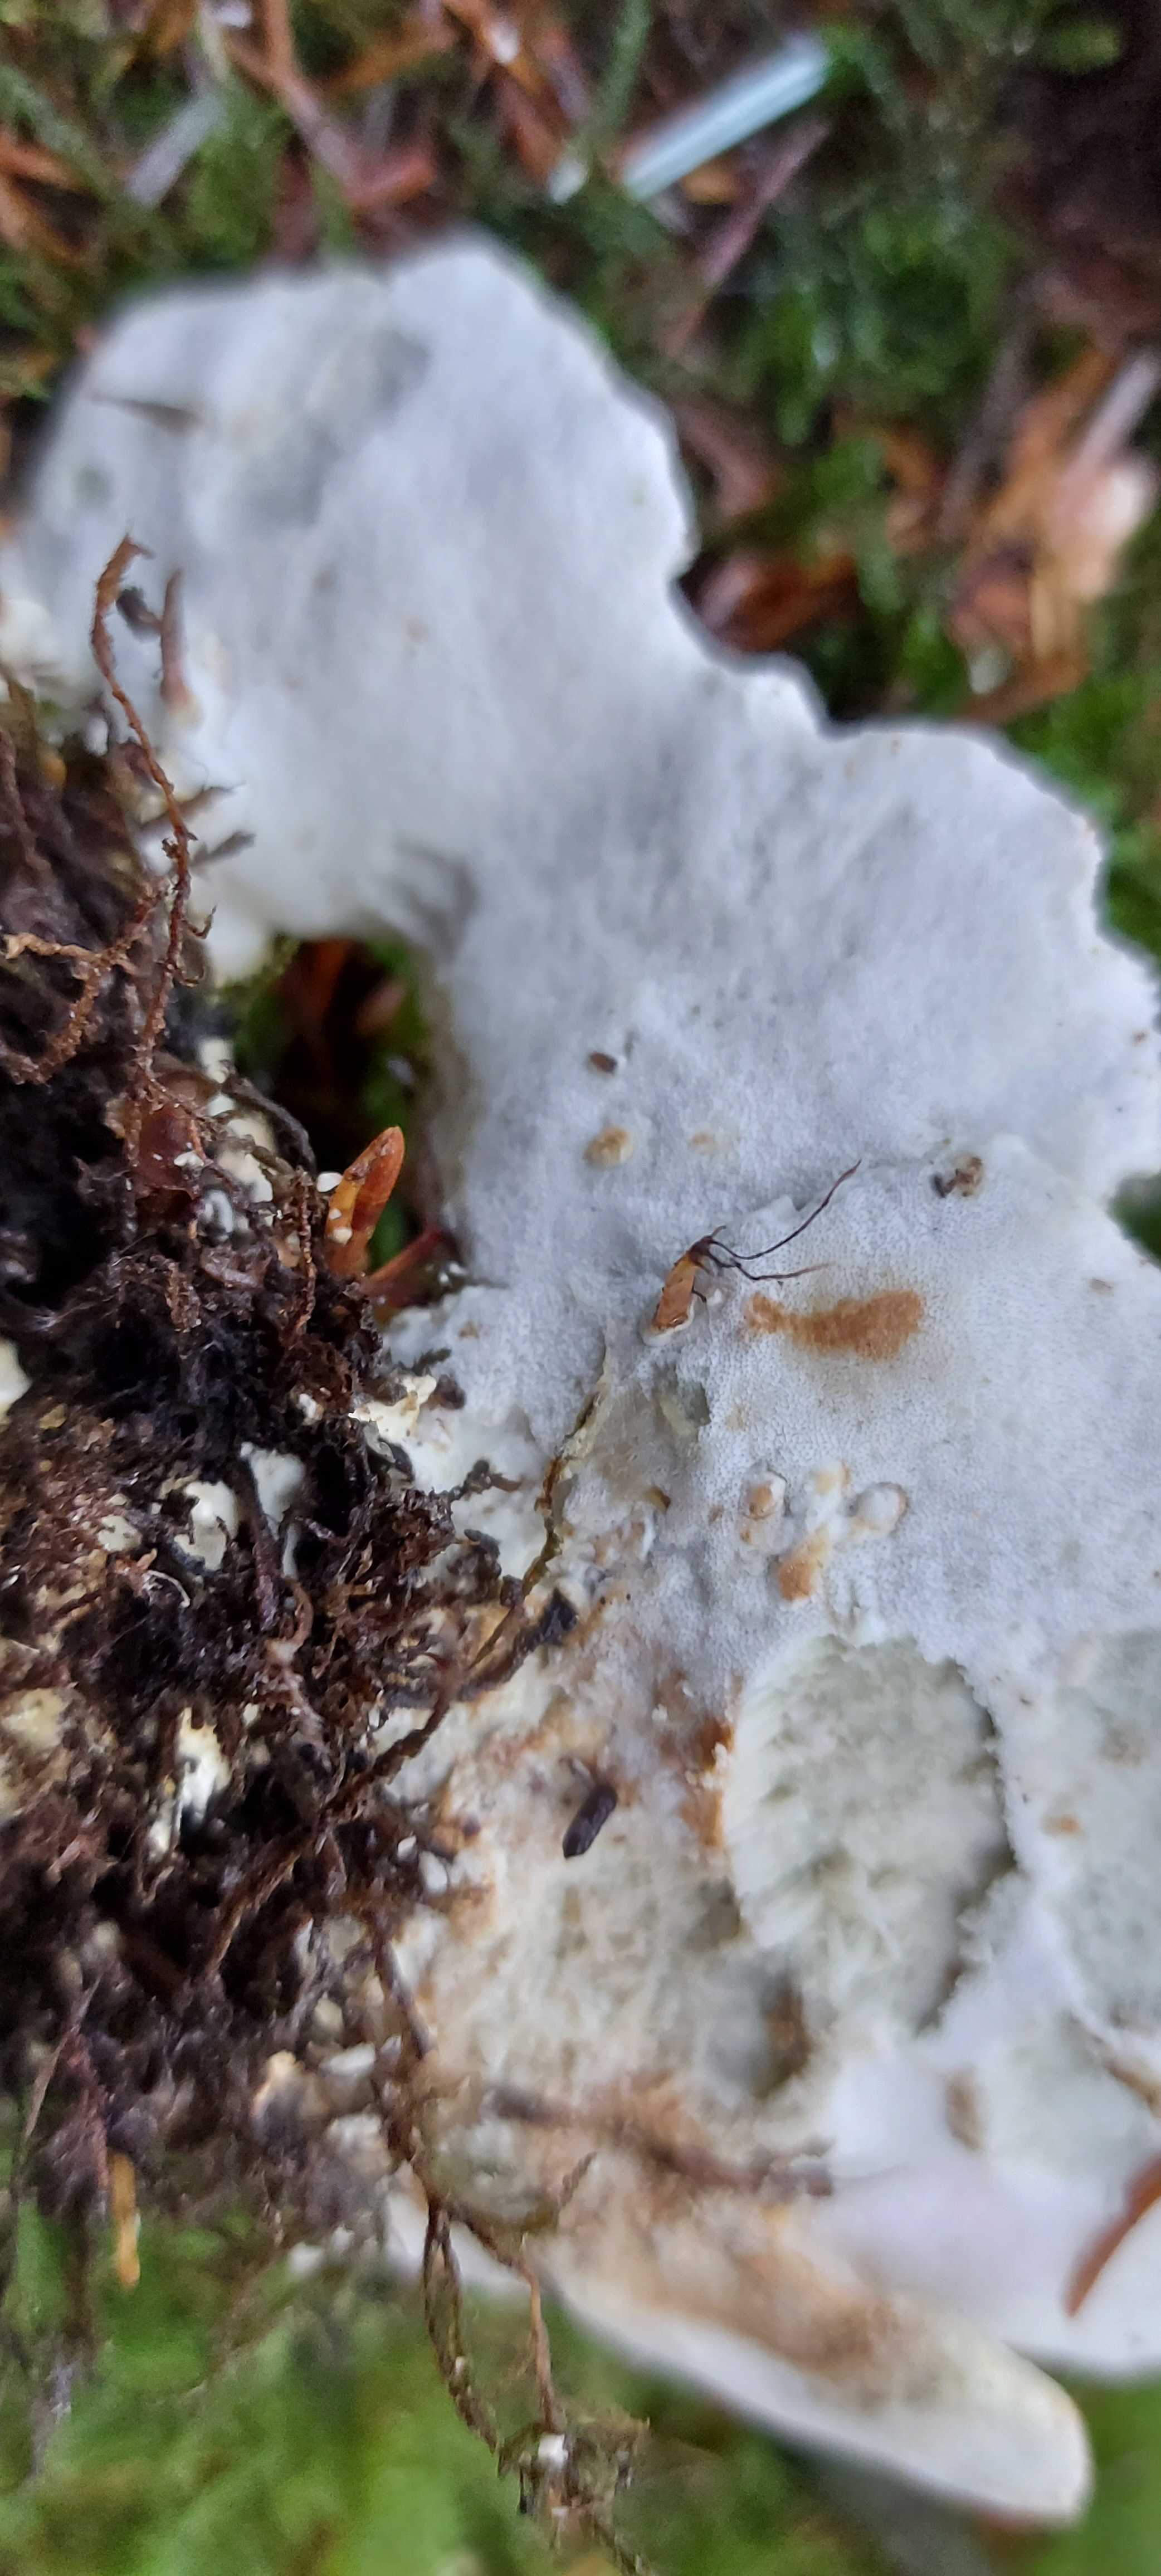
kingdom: Fungi
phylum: Basidiomycota
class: Agaricomycetes
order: Polyporales
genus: Calcipostia
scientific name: Calcipostia guttulata
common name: dråbe-kødporesvamp
